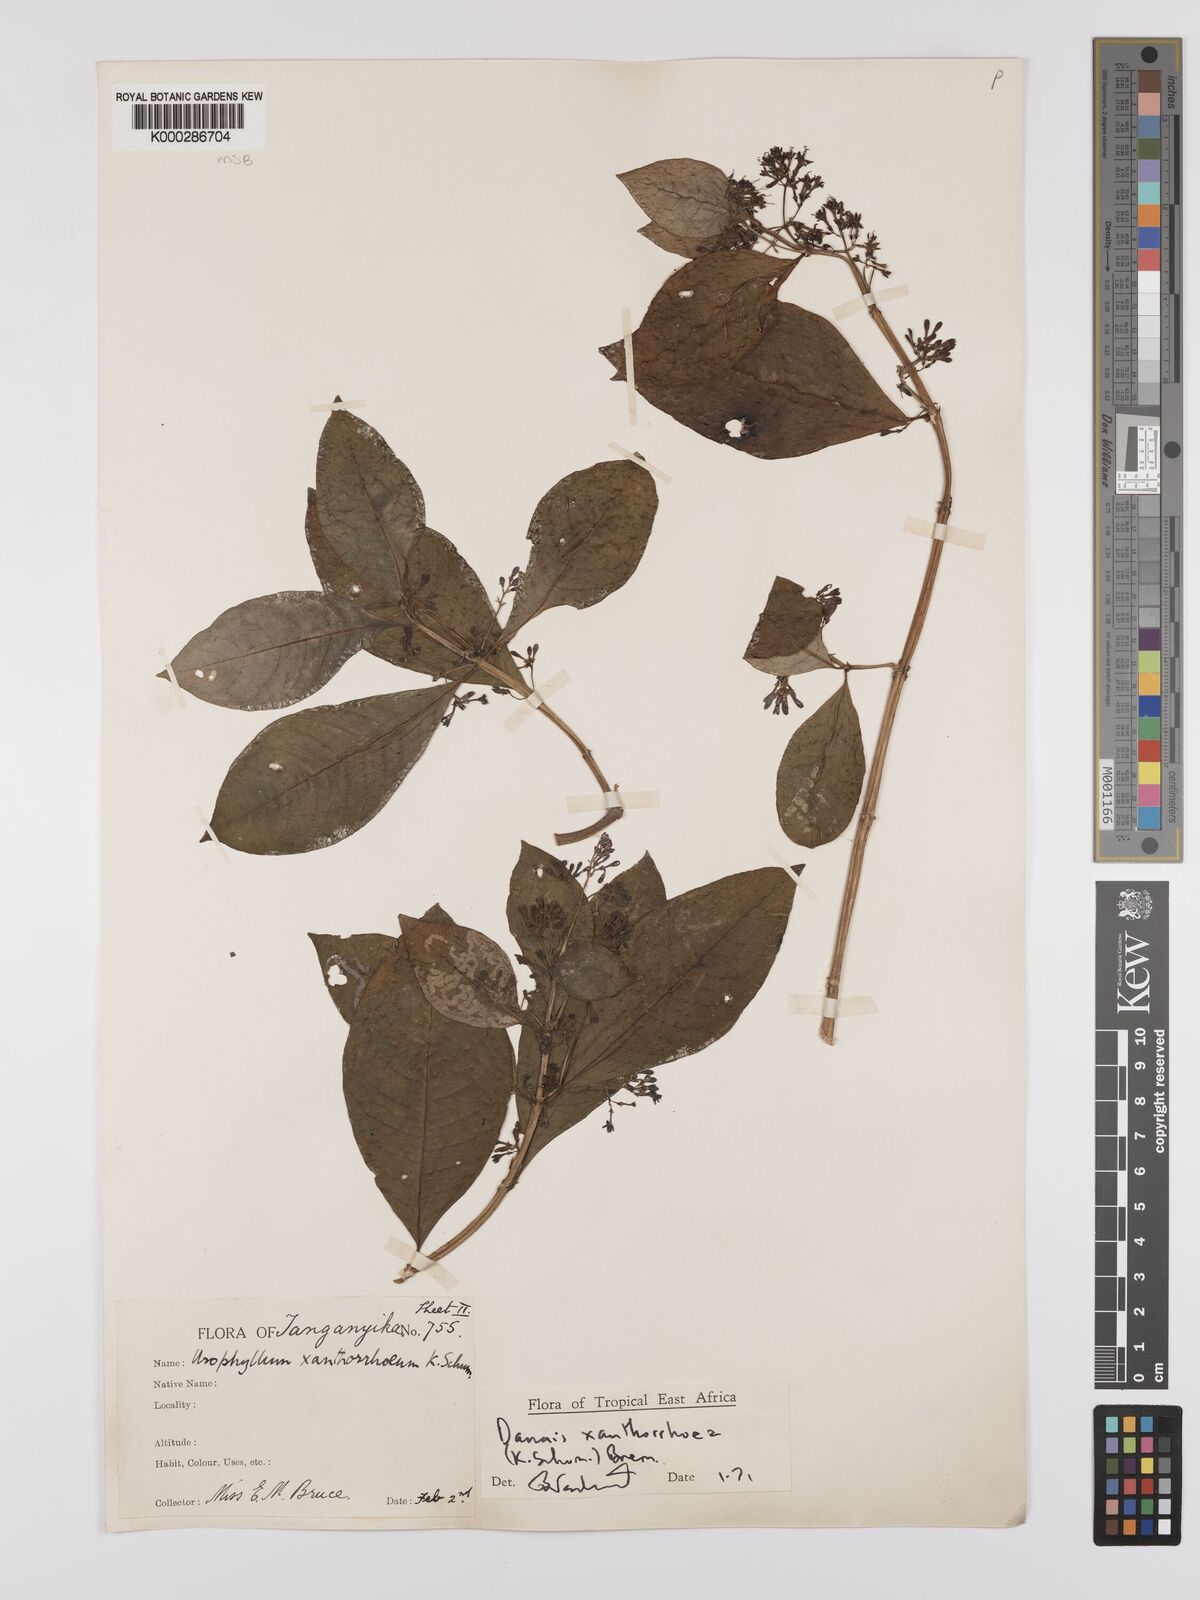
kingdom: Plantae
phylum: Tracheophyta
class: Magnoliopsida
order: Gentianales
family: Rubiaceae
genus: Danais
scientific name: Danais xanthorrhoea
